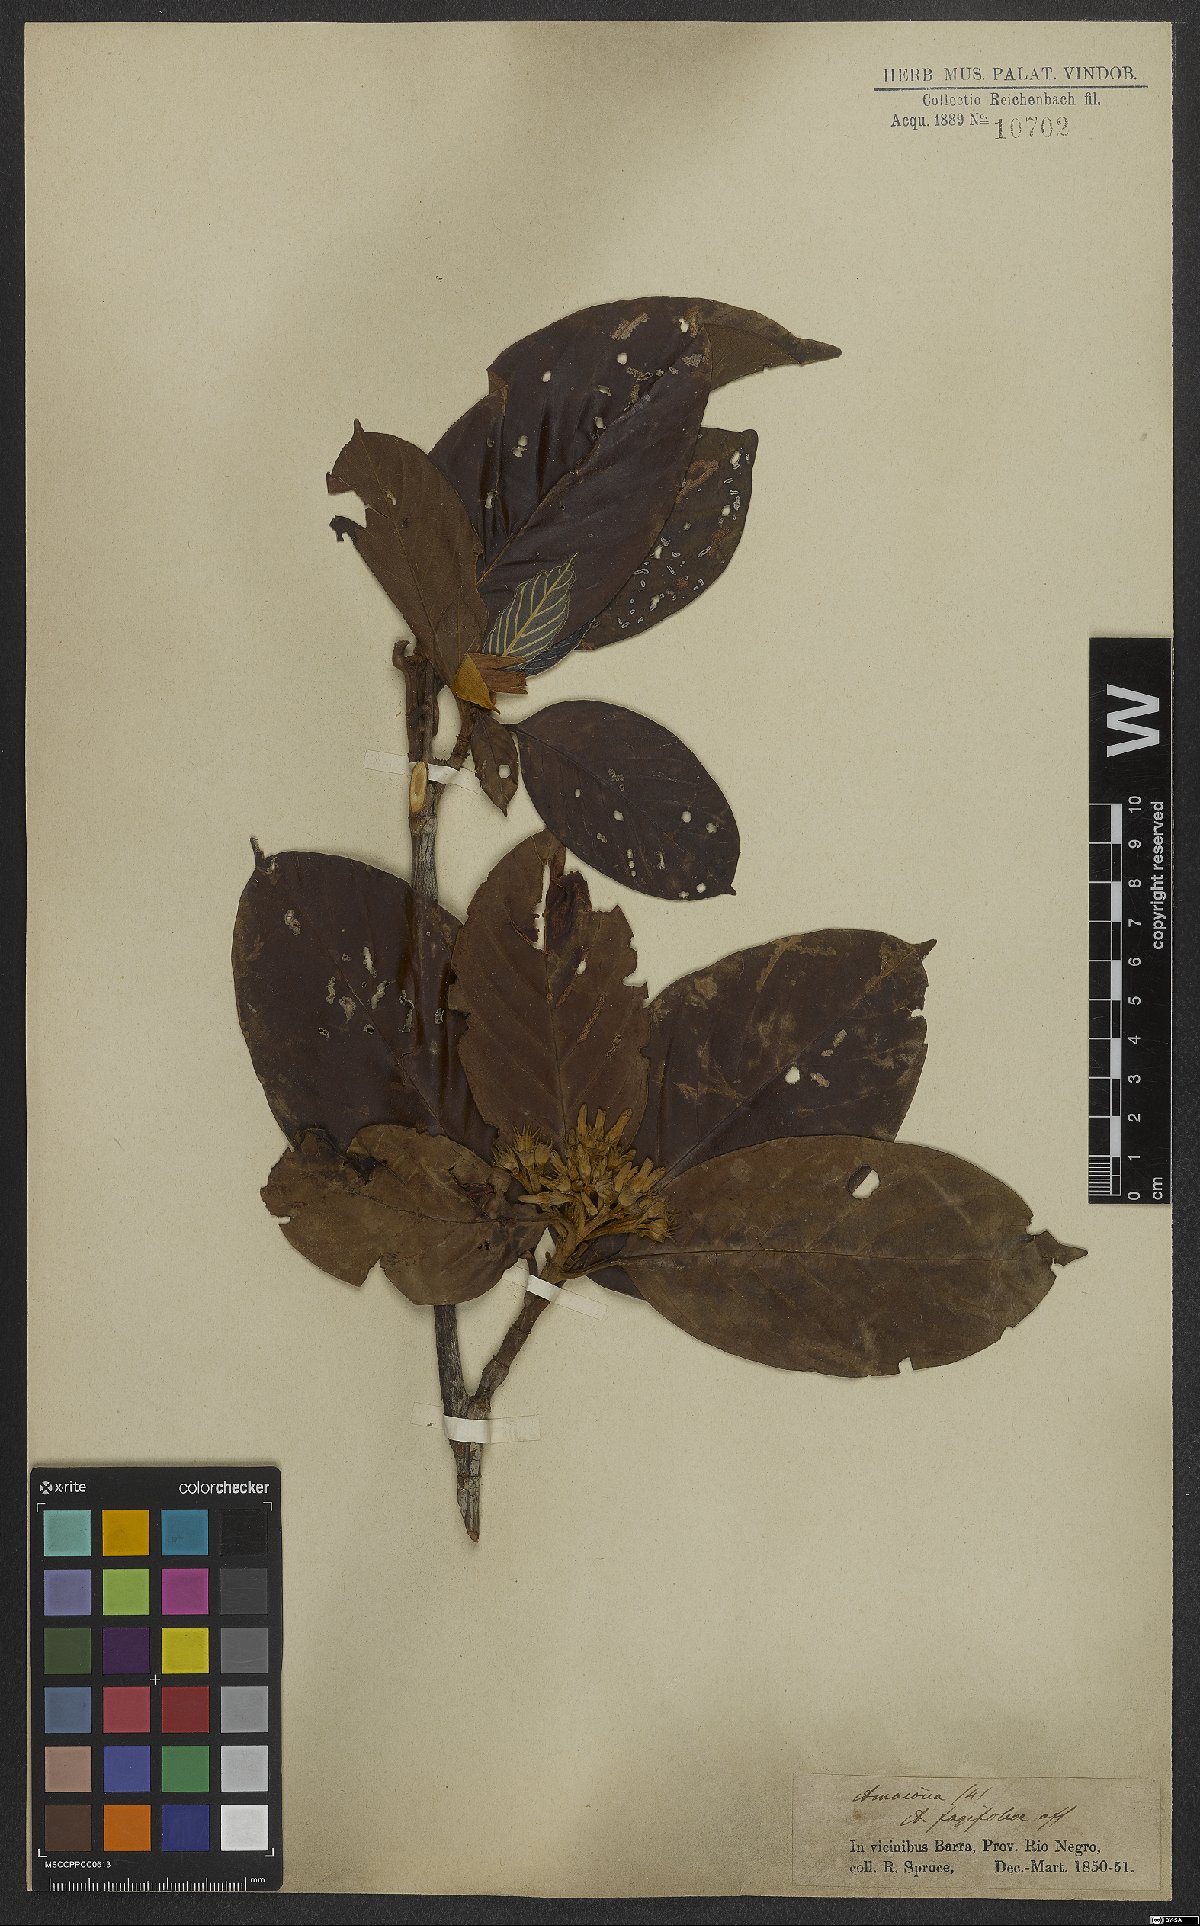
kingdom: Plantae
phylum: Tracheophyta
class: Magnoliopsida
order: Gentianales
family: Rubiaceae
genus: Amaioua
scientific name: Amaioua glomerulata
